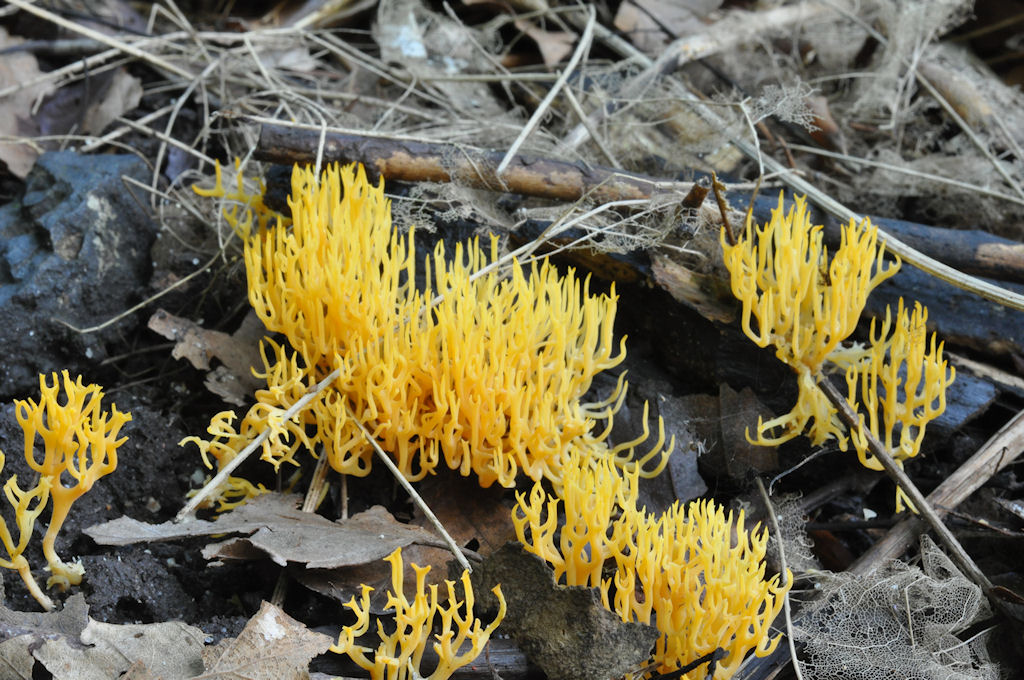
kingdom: Fungi
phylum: Basidiomycota
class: Agaricomycetes
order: Agaricales
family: Clavariaceae
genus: Ramariopsis
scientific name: Ramariopsis crocea
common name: gylden køllesvamp
